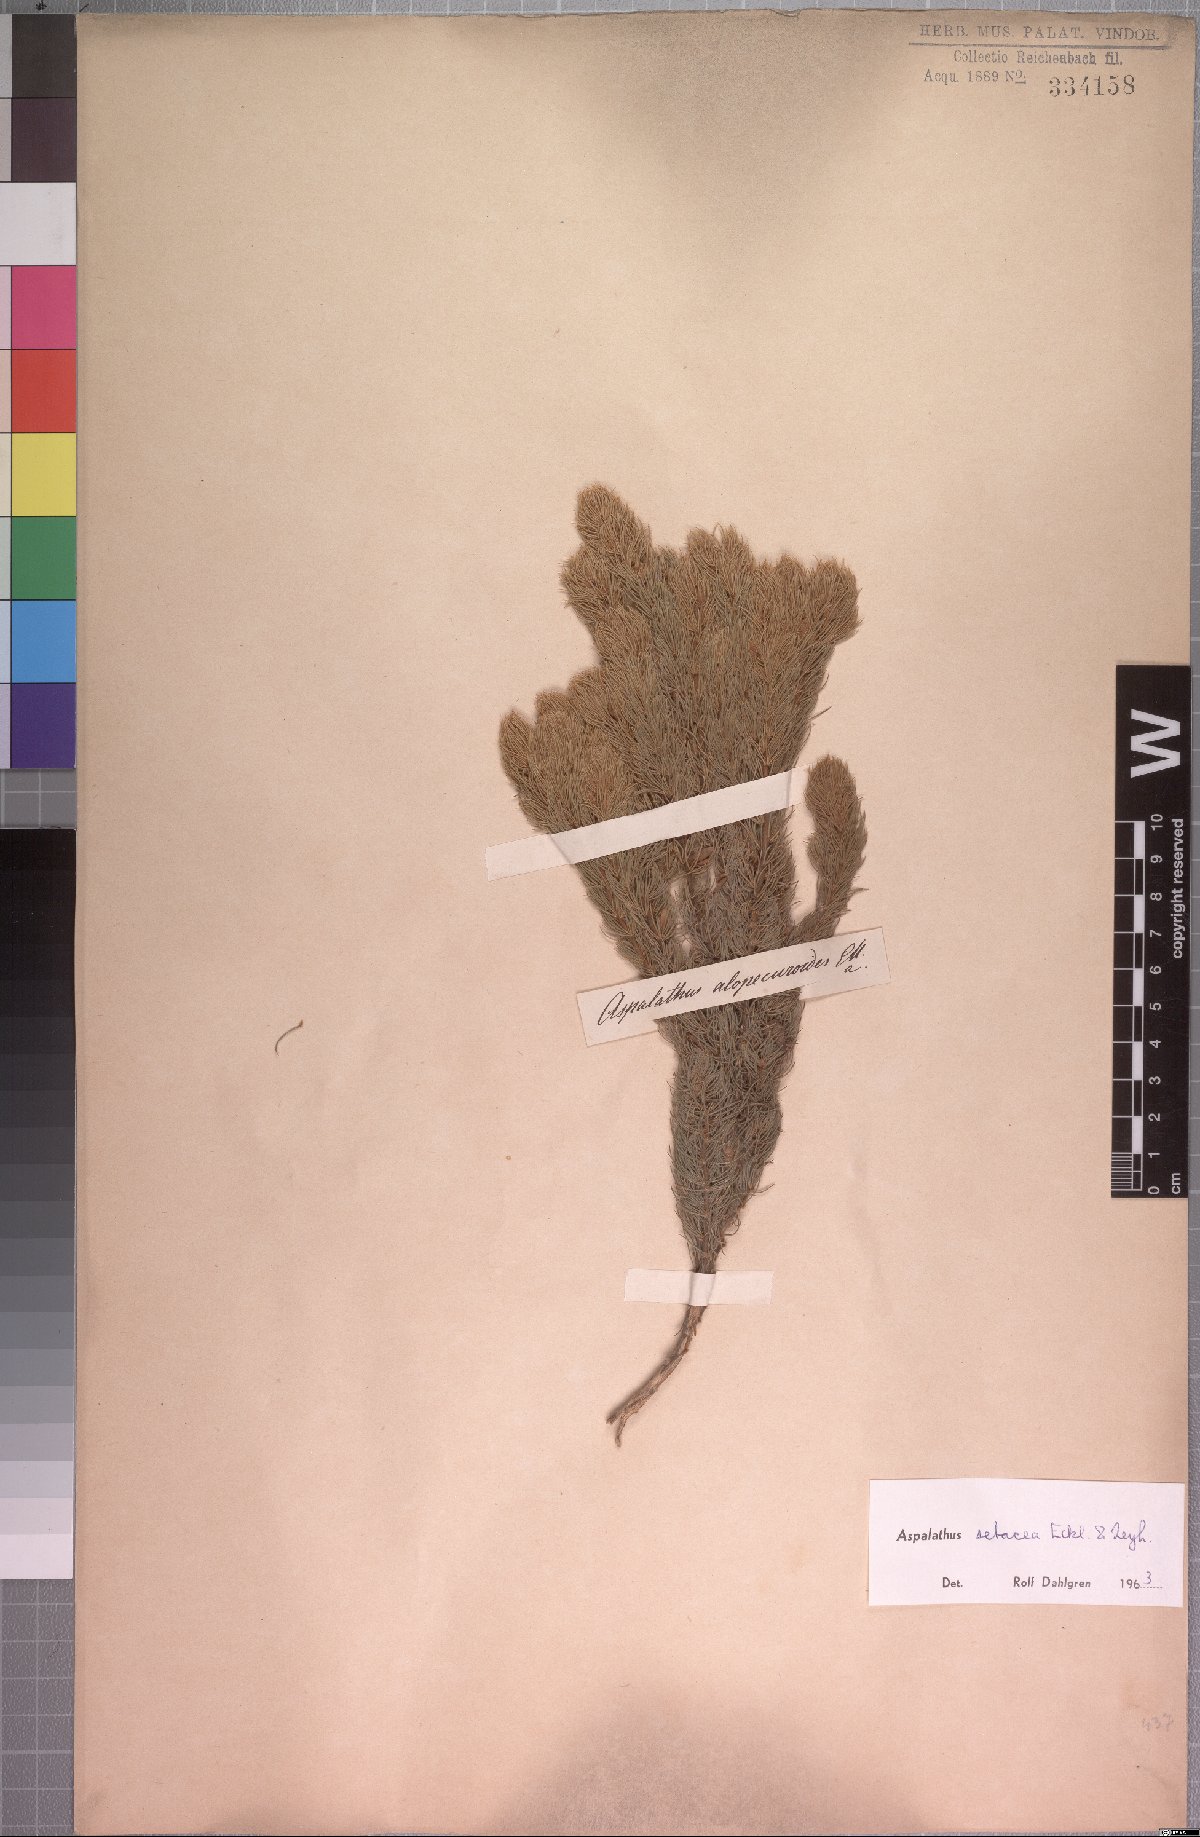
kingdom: Plantae
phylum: Tracheophyta
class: Magnoliopsida
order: Fabales
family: Fabaceae
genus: Aspalathus
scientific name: Aspalathus setacea
